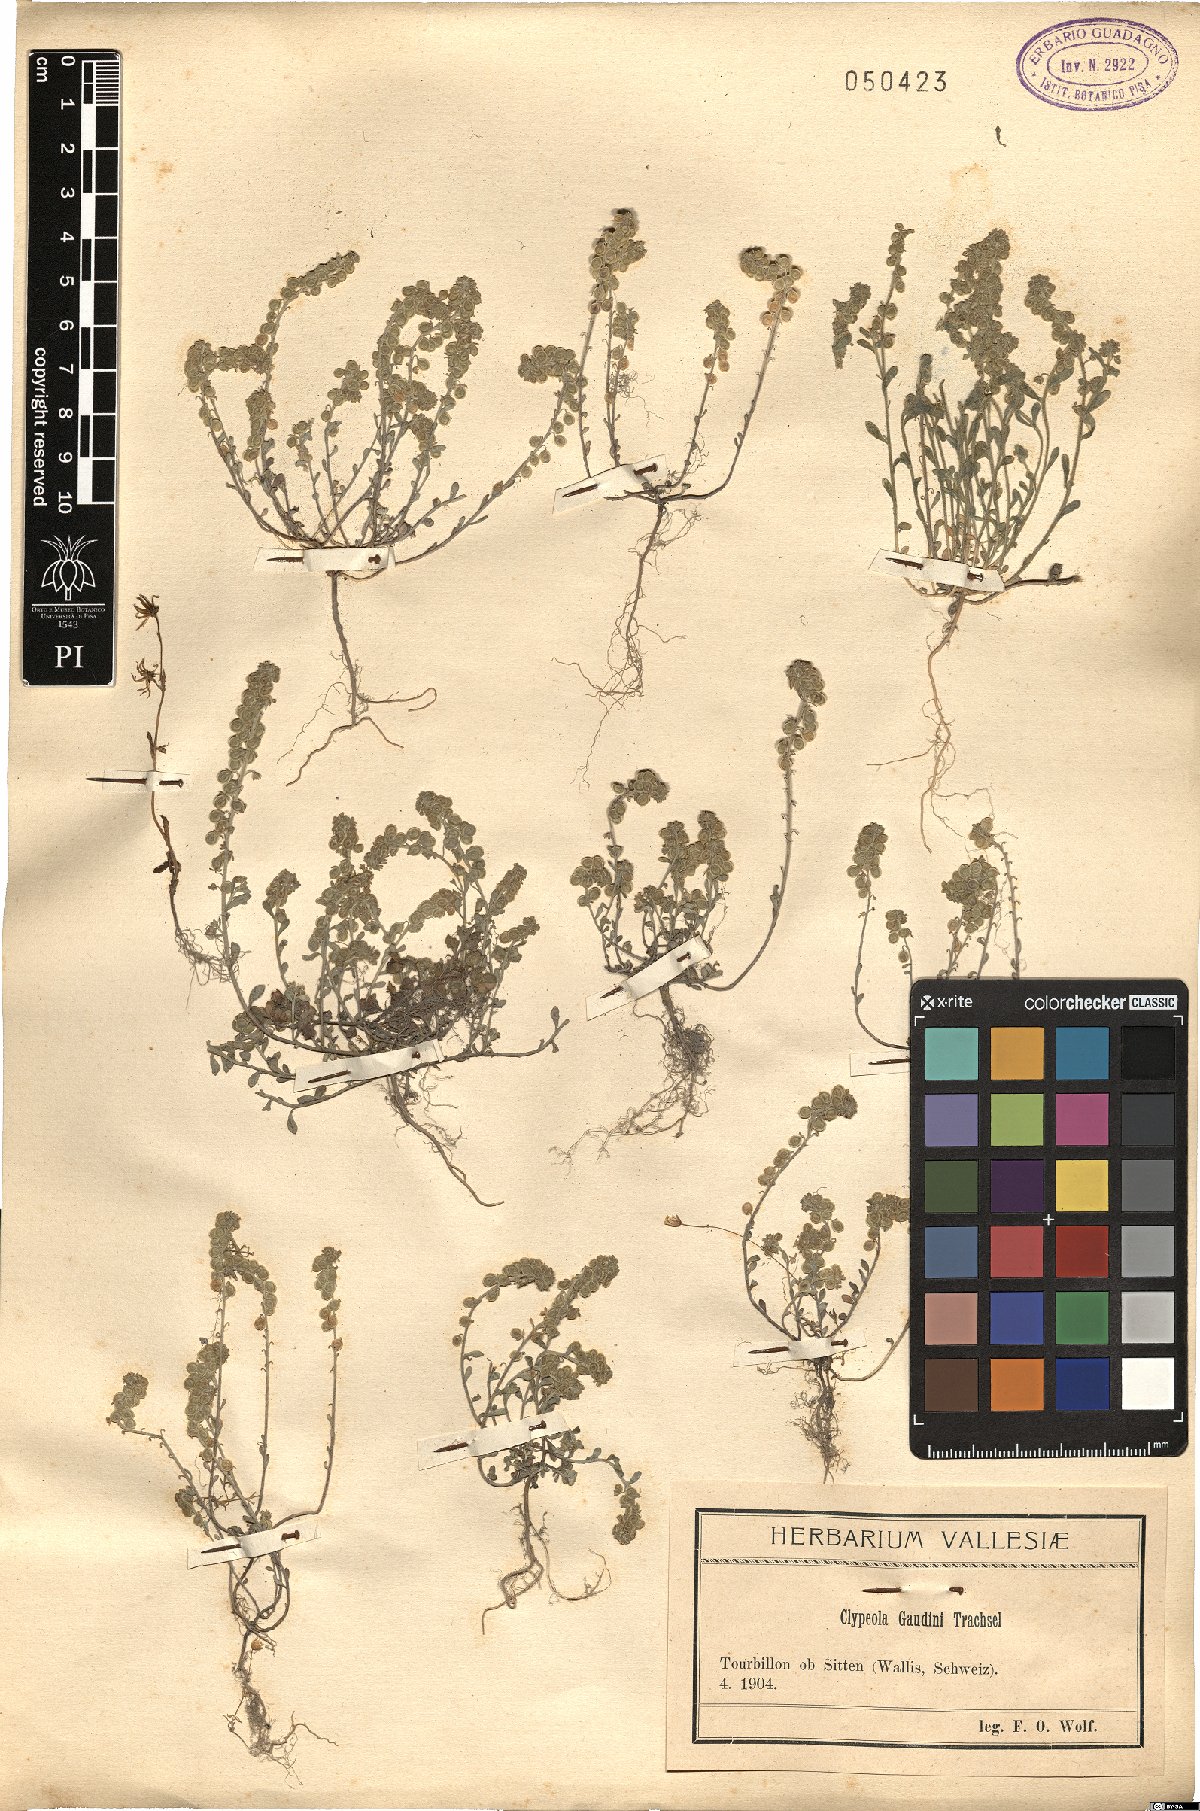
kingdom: Plantae
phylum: Tracheophyta
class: Magnoliopsida
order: Brassicales
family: Brassicaceae
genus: Clypeola
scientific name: Clypeola jonthlaspi
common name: Disk cress
